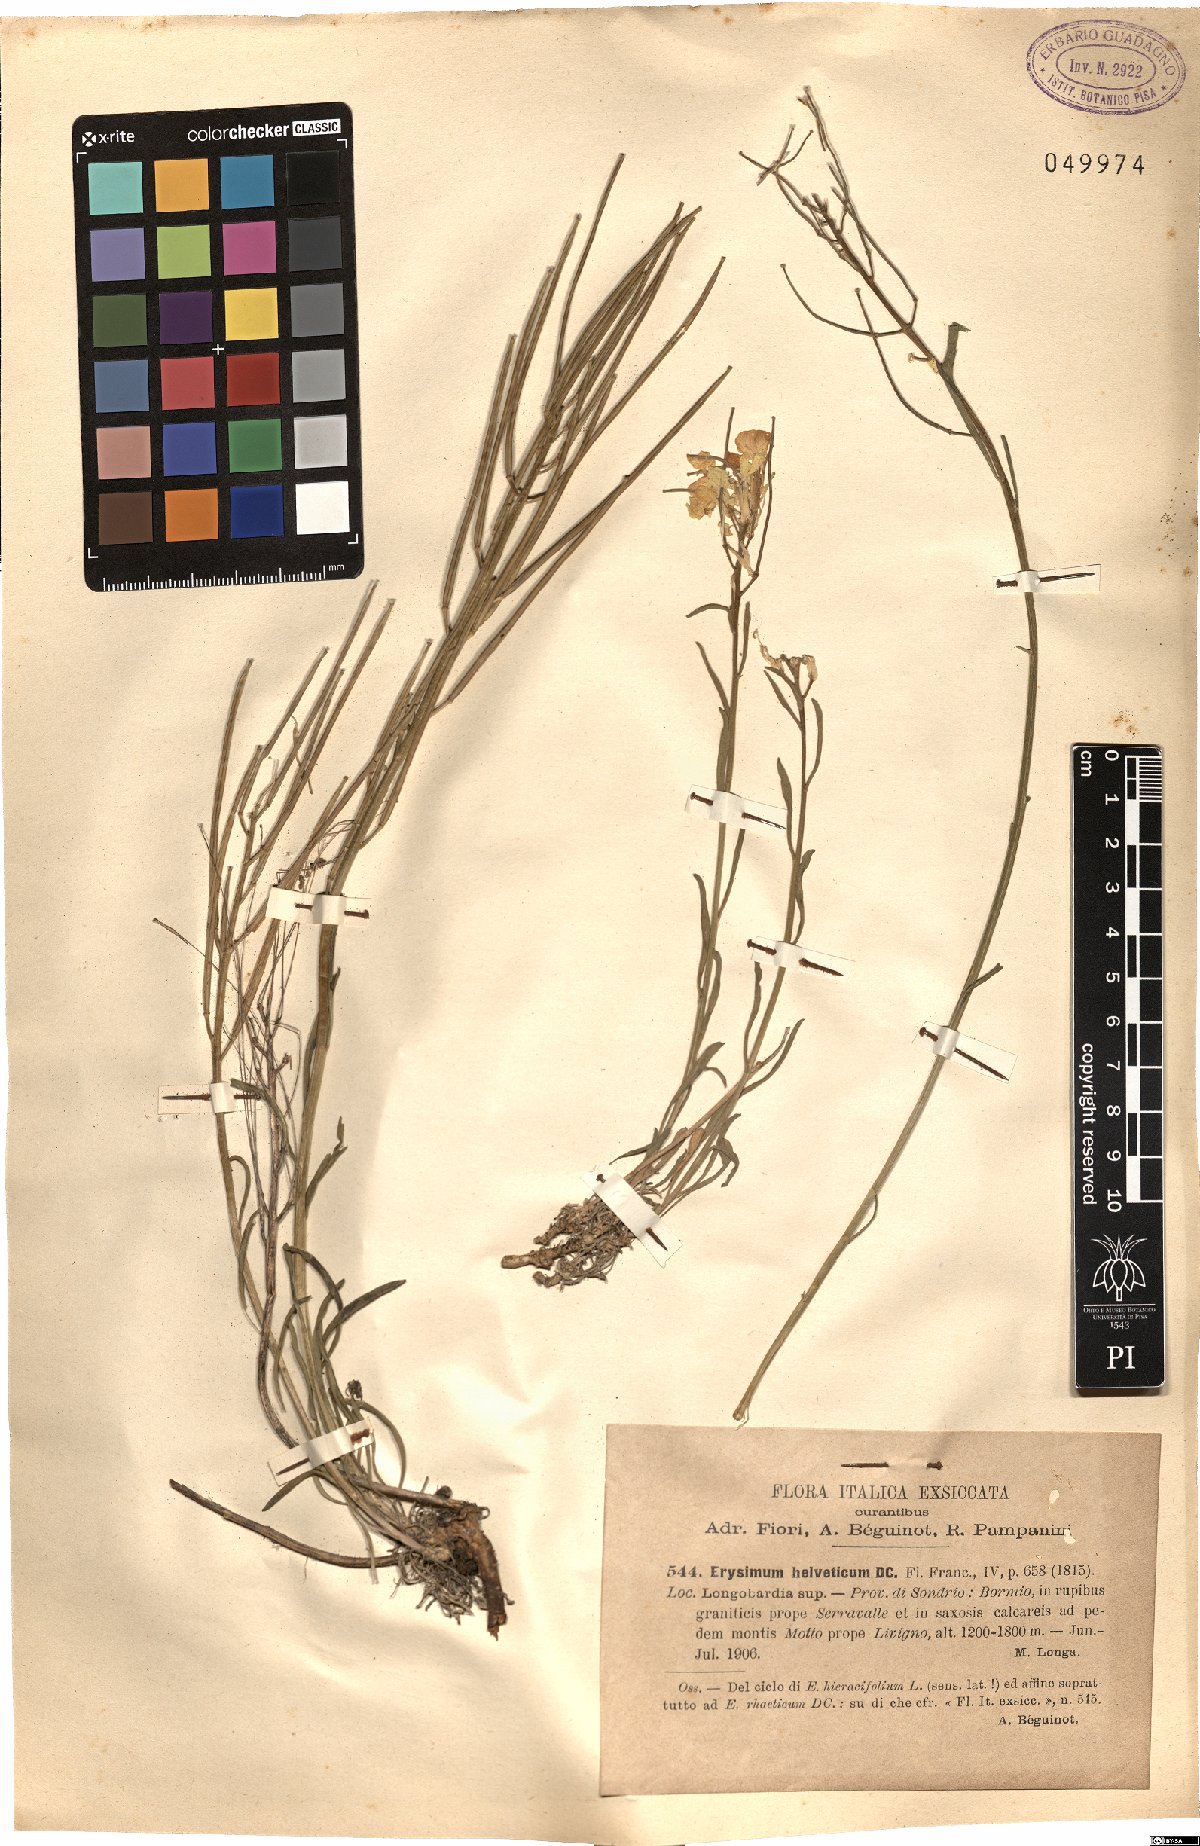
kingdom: Plantae
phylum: Tracheophyta
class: Magnoliopsida
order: Brassicales
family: Brassicaceae
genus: Erysimum
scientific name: Erysimum rhaeticum
